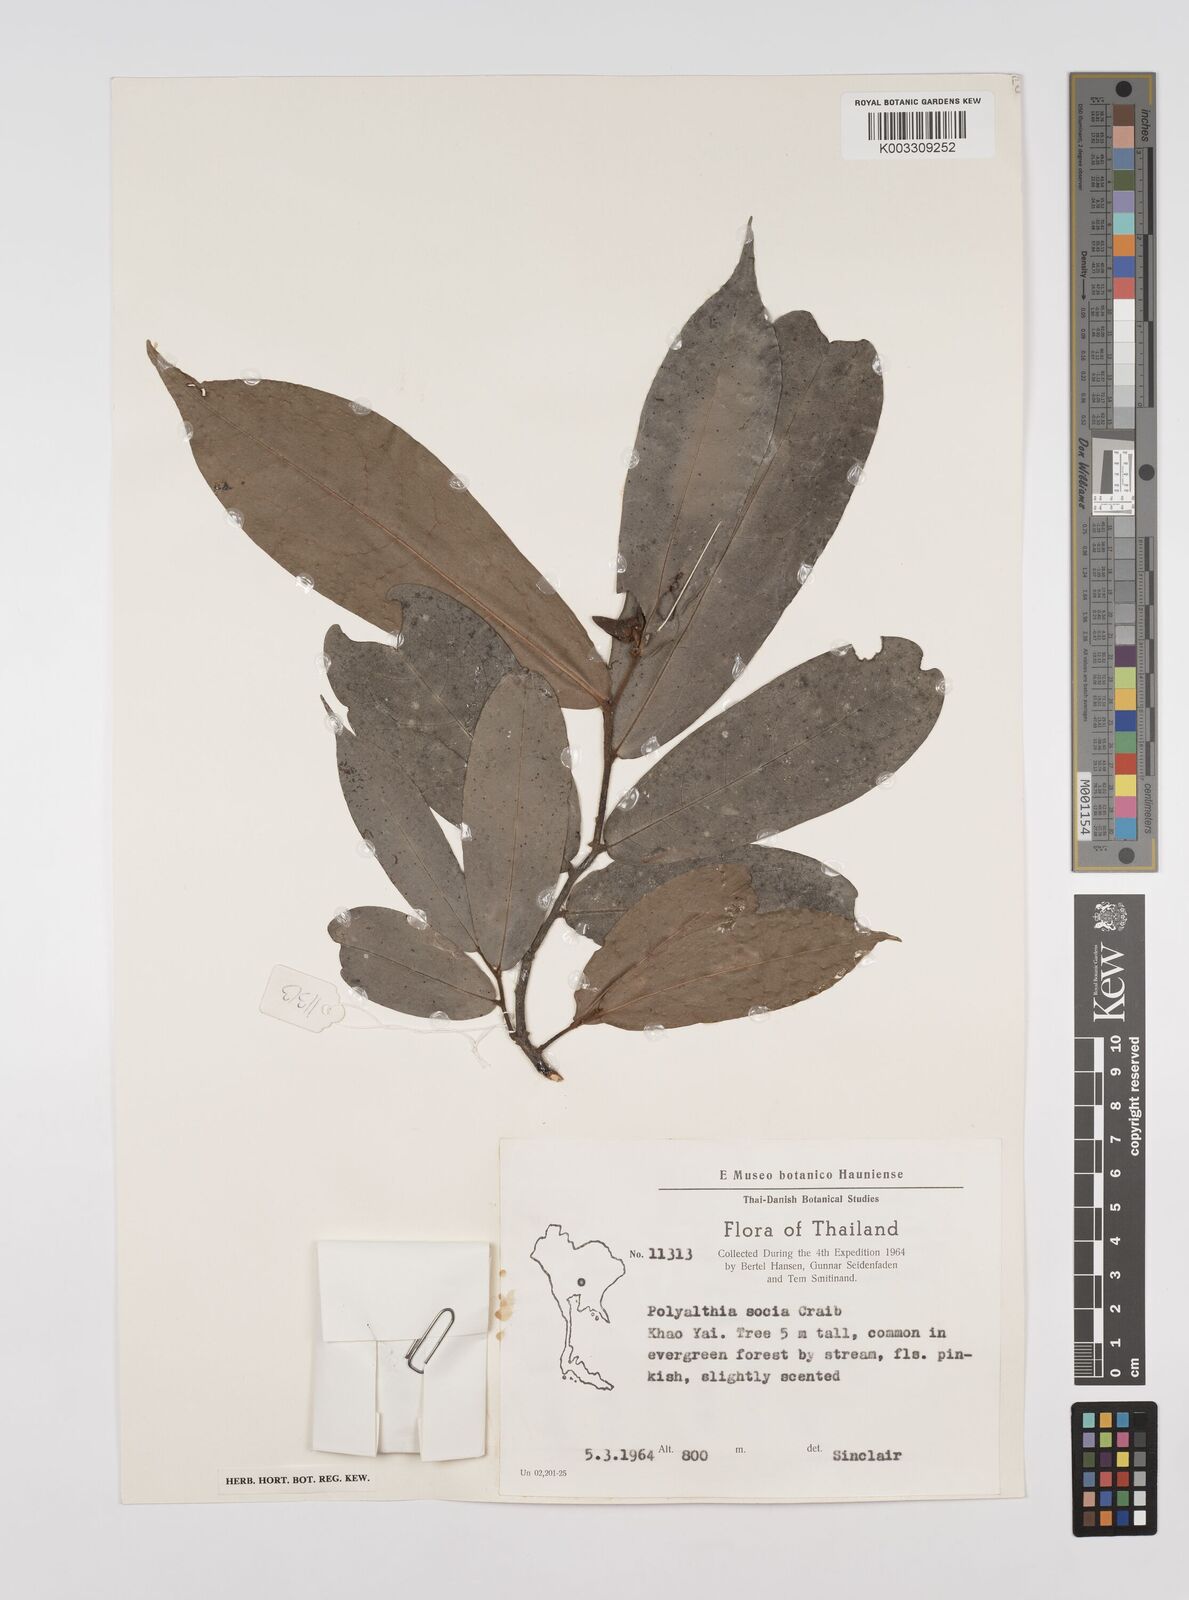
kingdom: Plantae
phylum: Tracheophyta
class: Magnoliopsida
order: Magnoliales
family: Annonaceae
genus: Polyalthia
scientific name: Polyalthia socia
